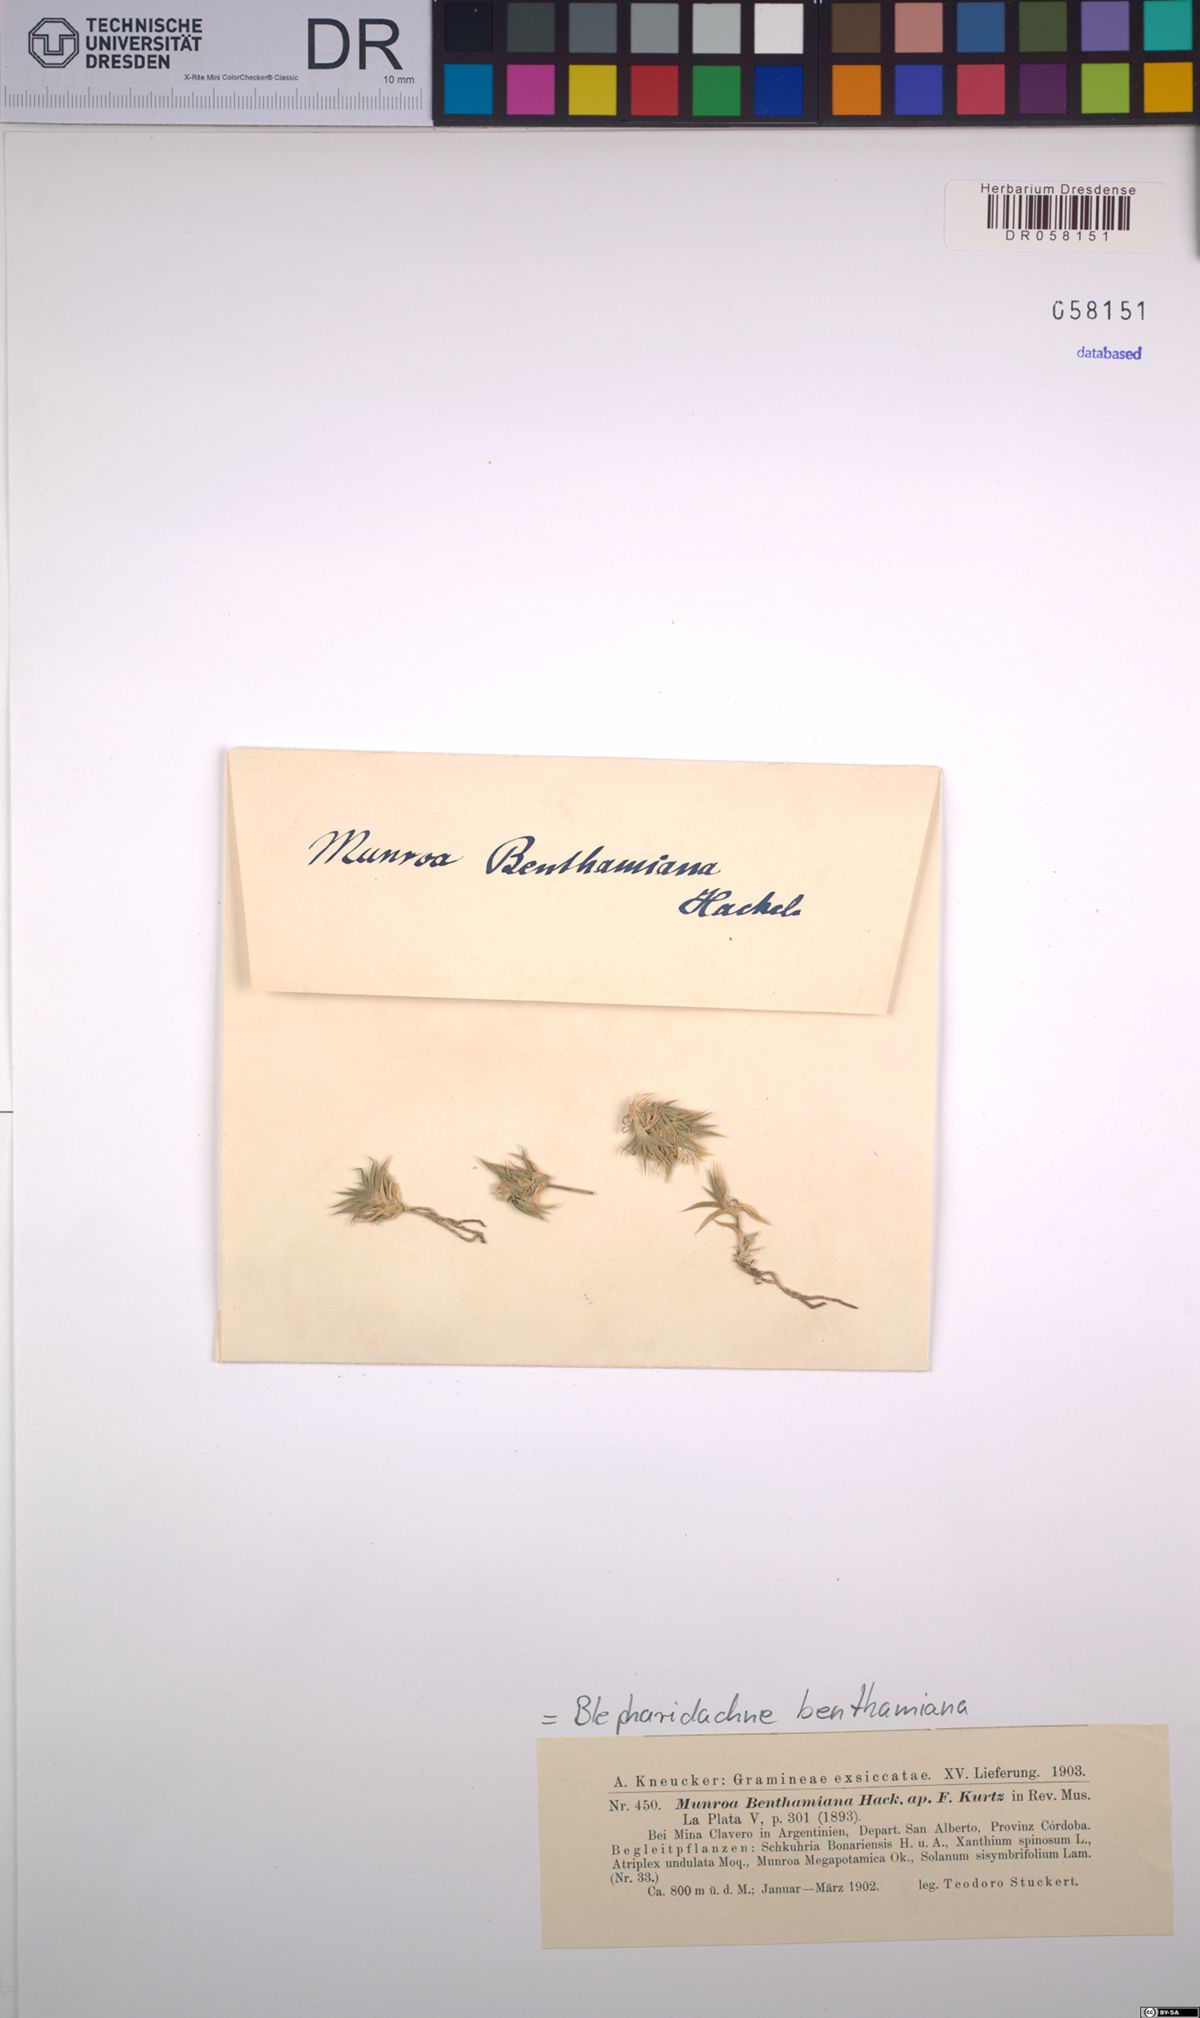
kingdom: Plantae
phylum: Tracheophyta
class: Liliopsida
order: Poales
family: Poaceae
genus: Blepharidachne
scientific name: Blepharidachne benthamiana
